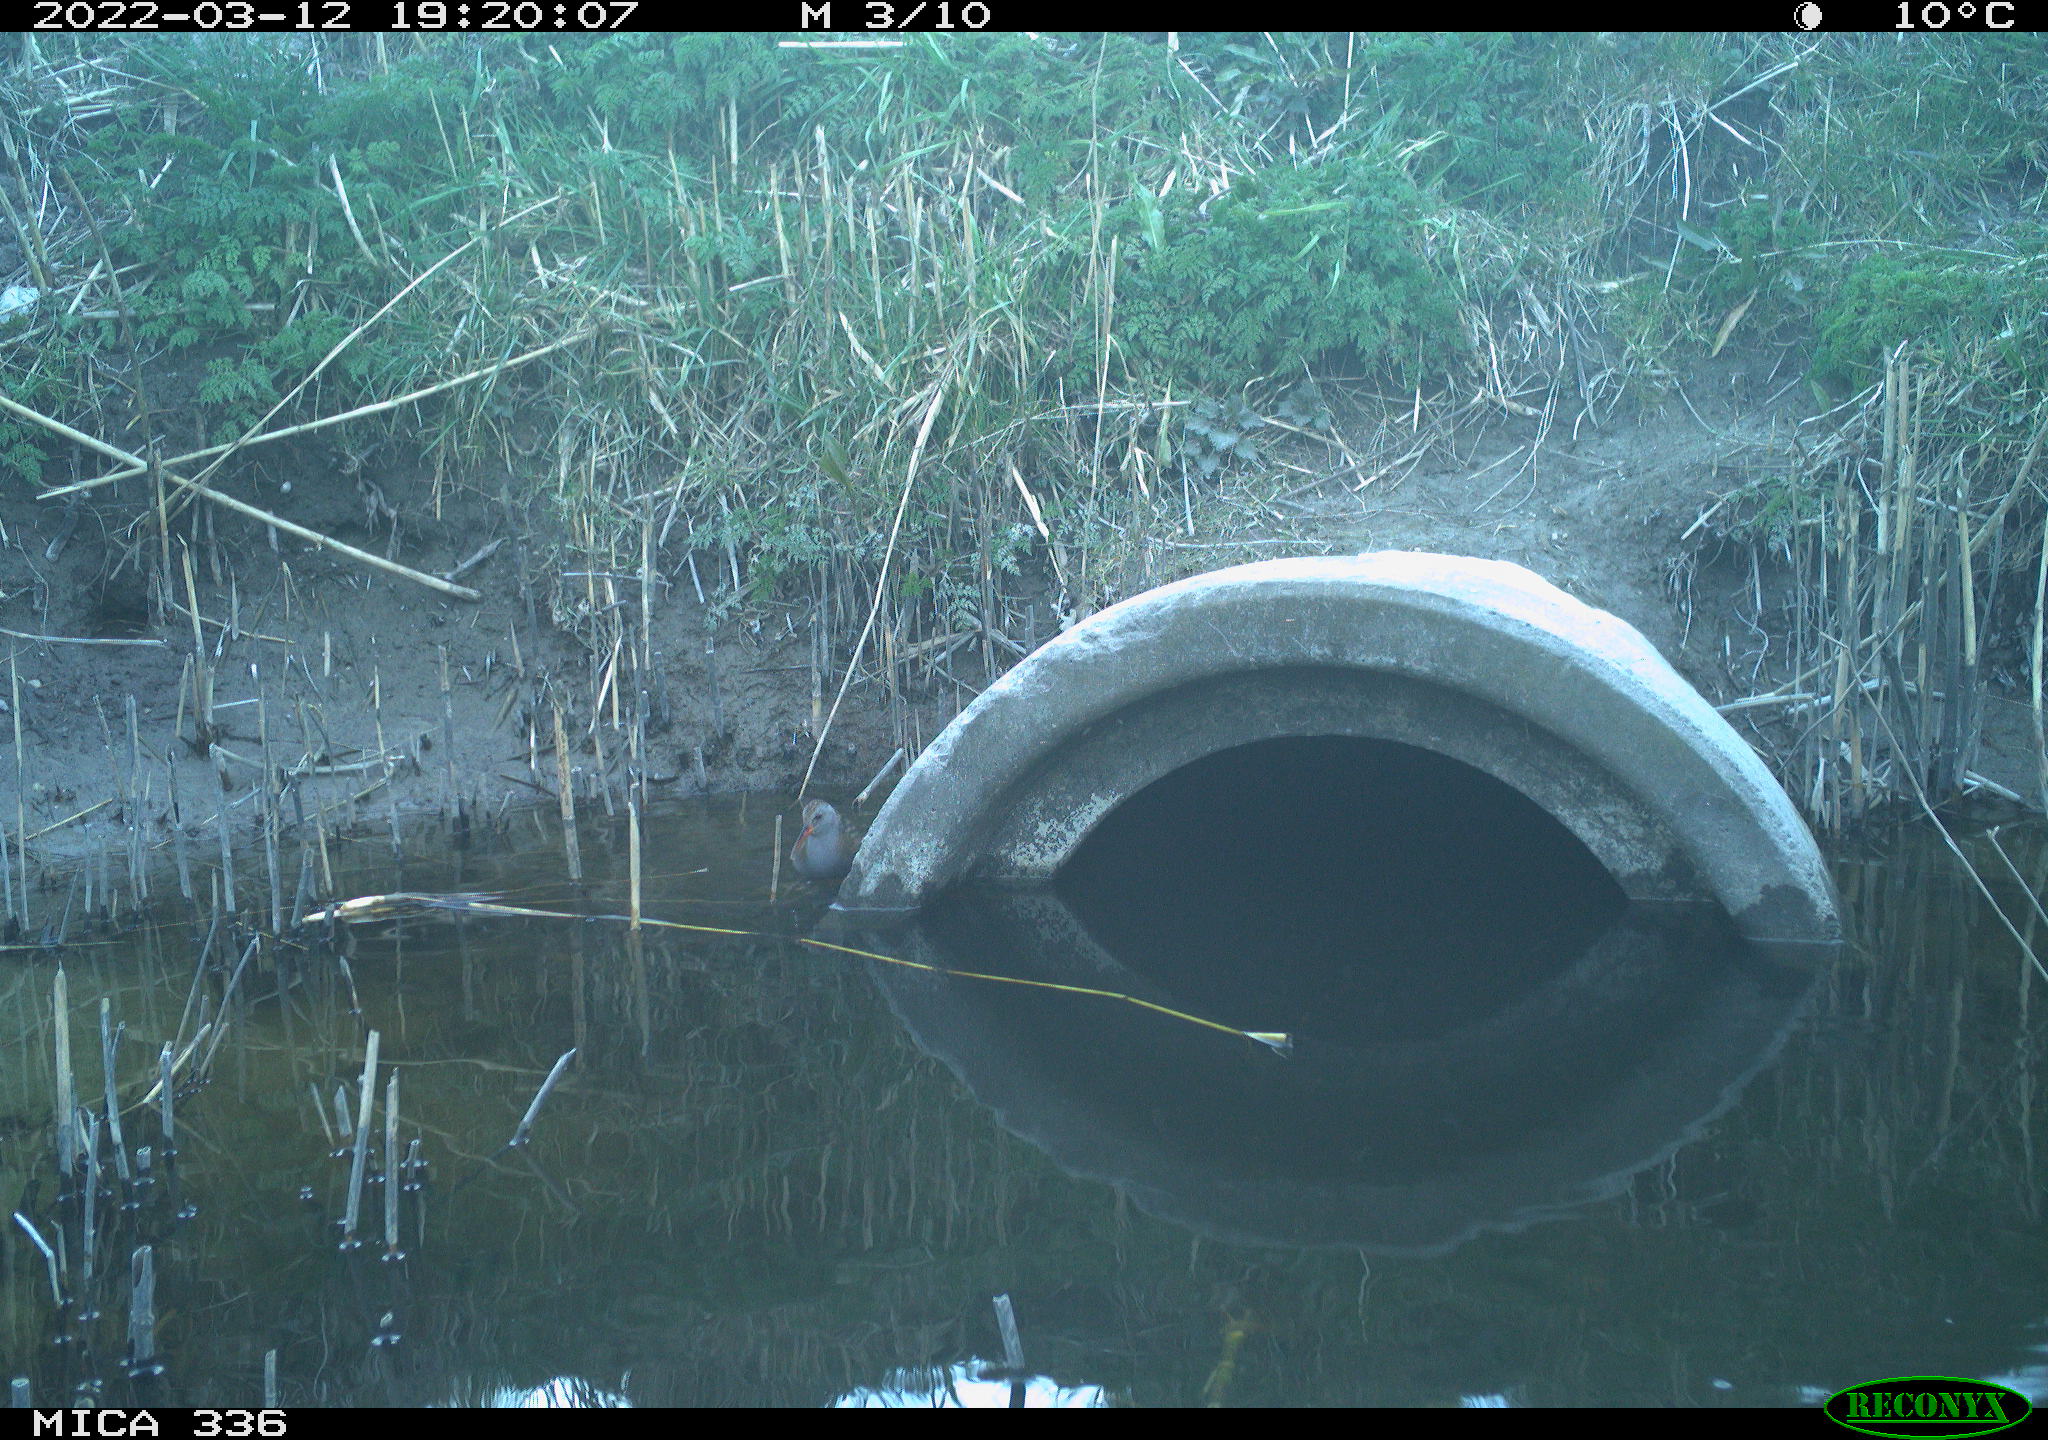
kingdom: Animalia
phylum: Chordata
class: Aves
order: Gruiformes
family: Rallidae
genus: Rallus
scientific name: Rallus aquaticus
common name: Water rail
